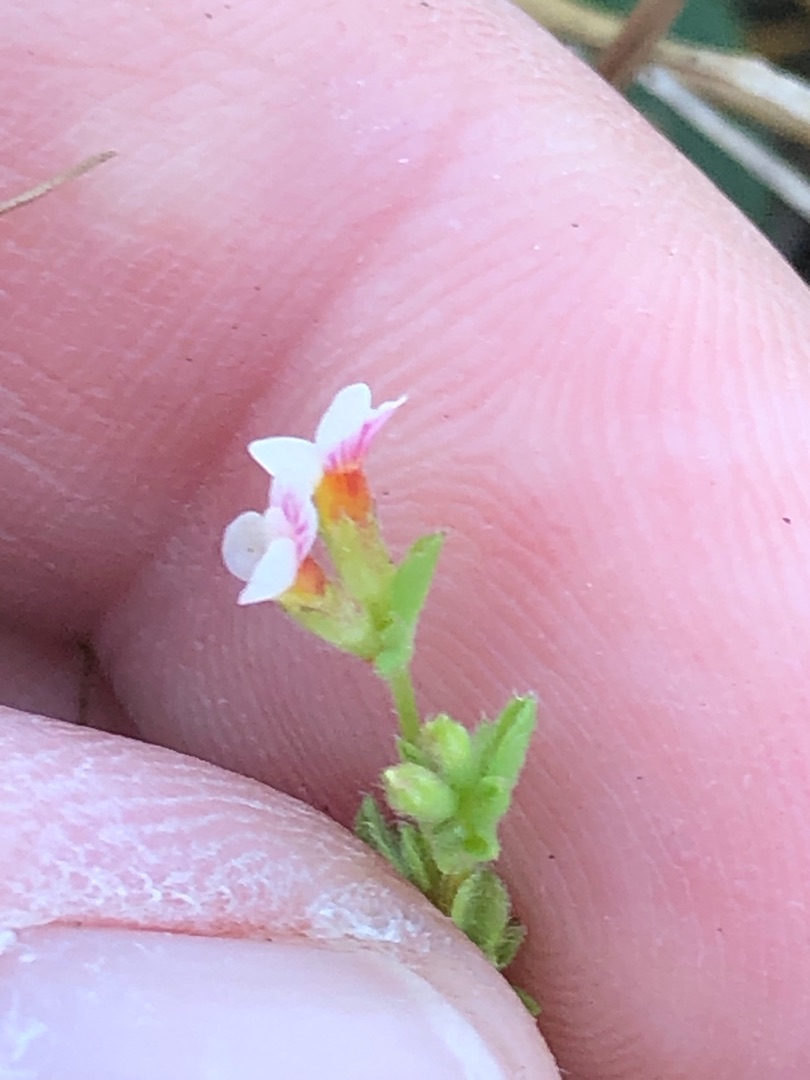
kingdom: Plantae
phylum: Tracheophyta
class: Magnoliopsida
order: Fabales
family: Fabaceae
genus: Ornithopus
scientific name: Ornithopus perpusillus
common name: Liden fugleklo
